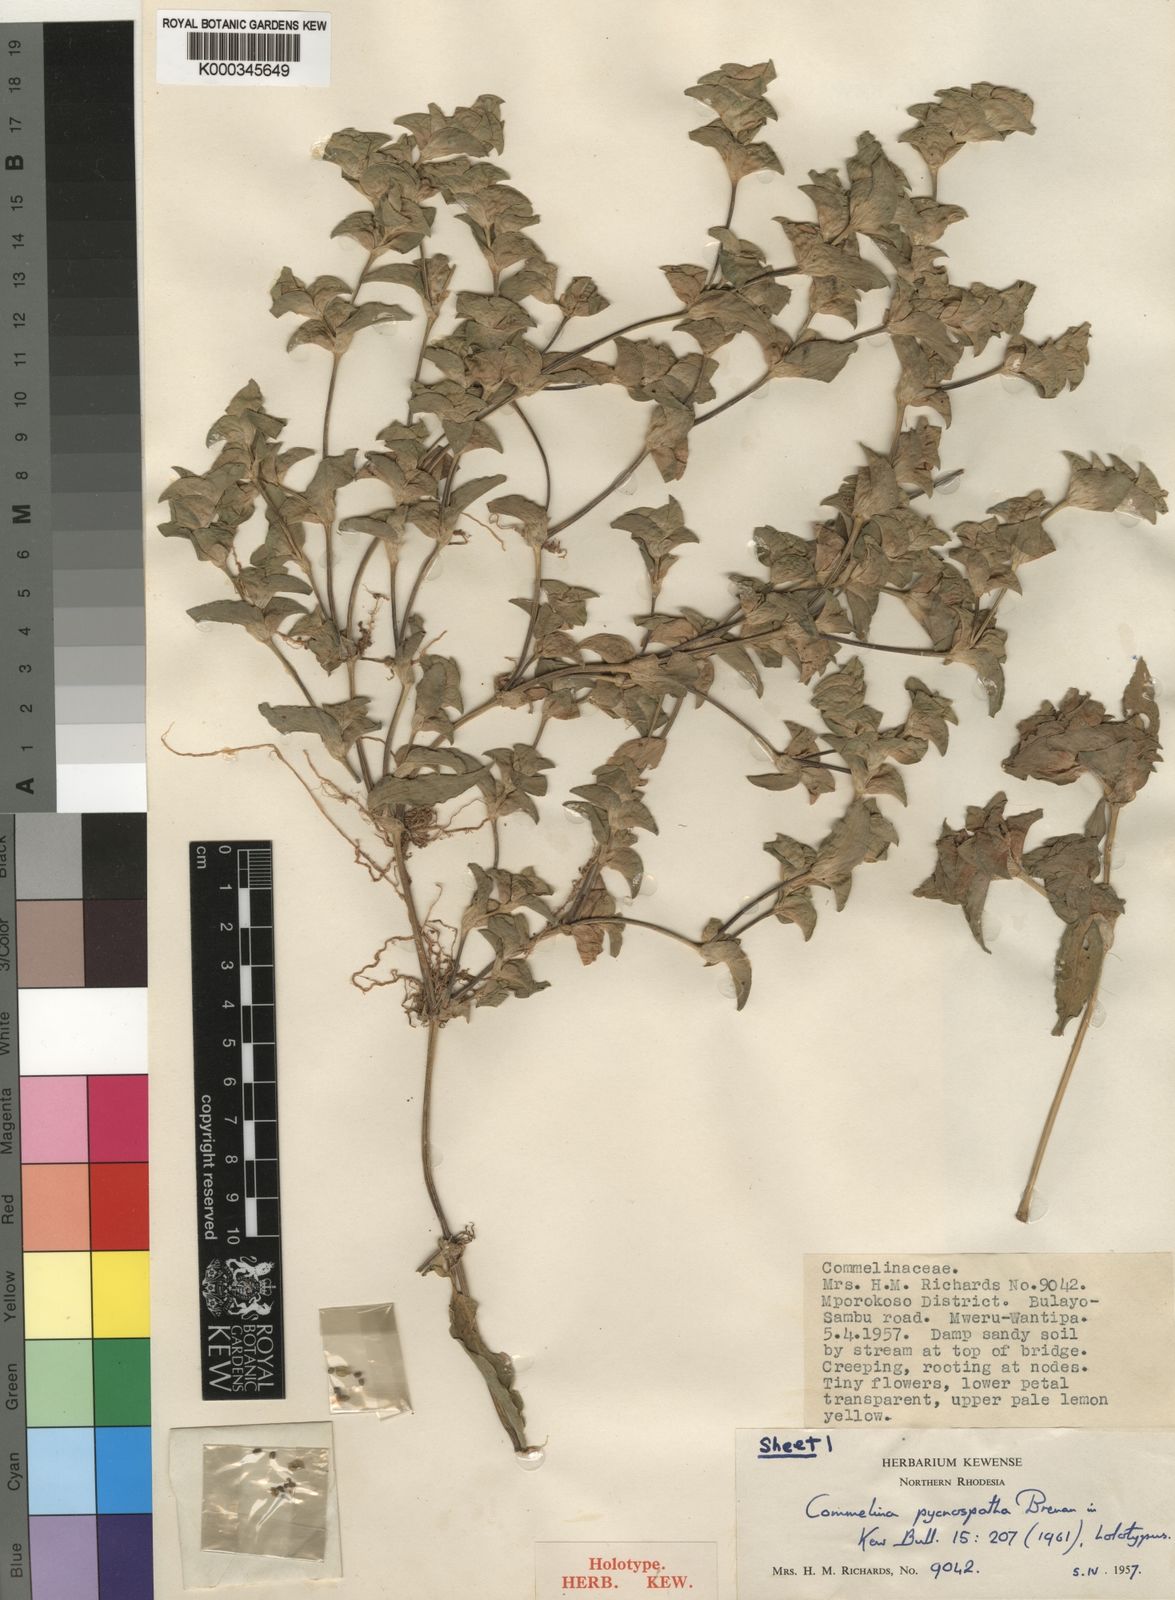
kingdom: Plantae
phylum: Tracheophyta
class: Liliopsida
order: Commelinales
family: Commelinaceae
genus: Commelina
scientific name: Commelina pycnospatha
